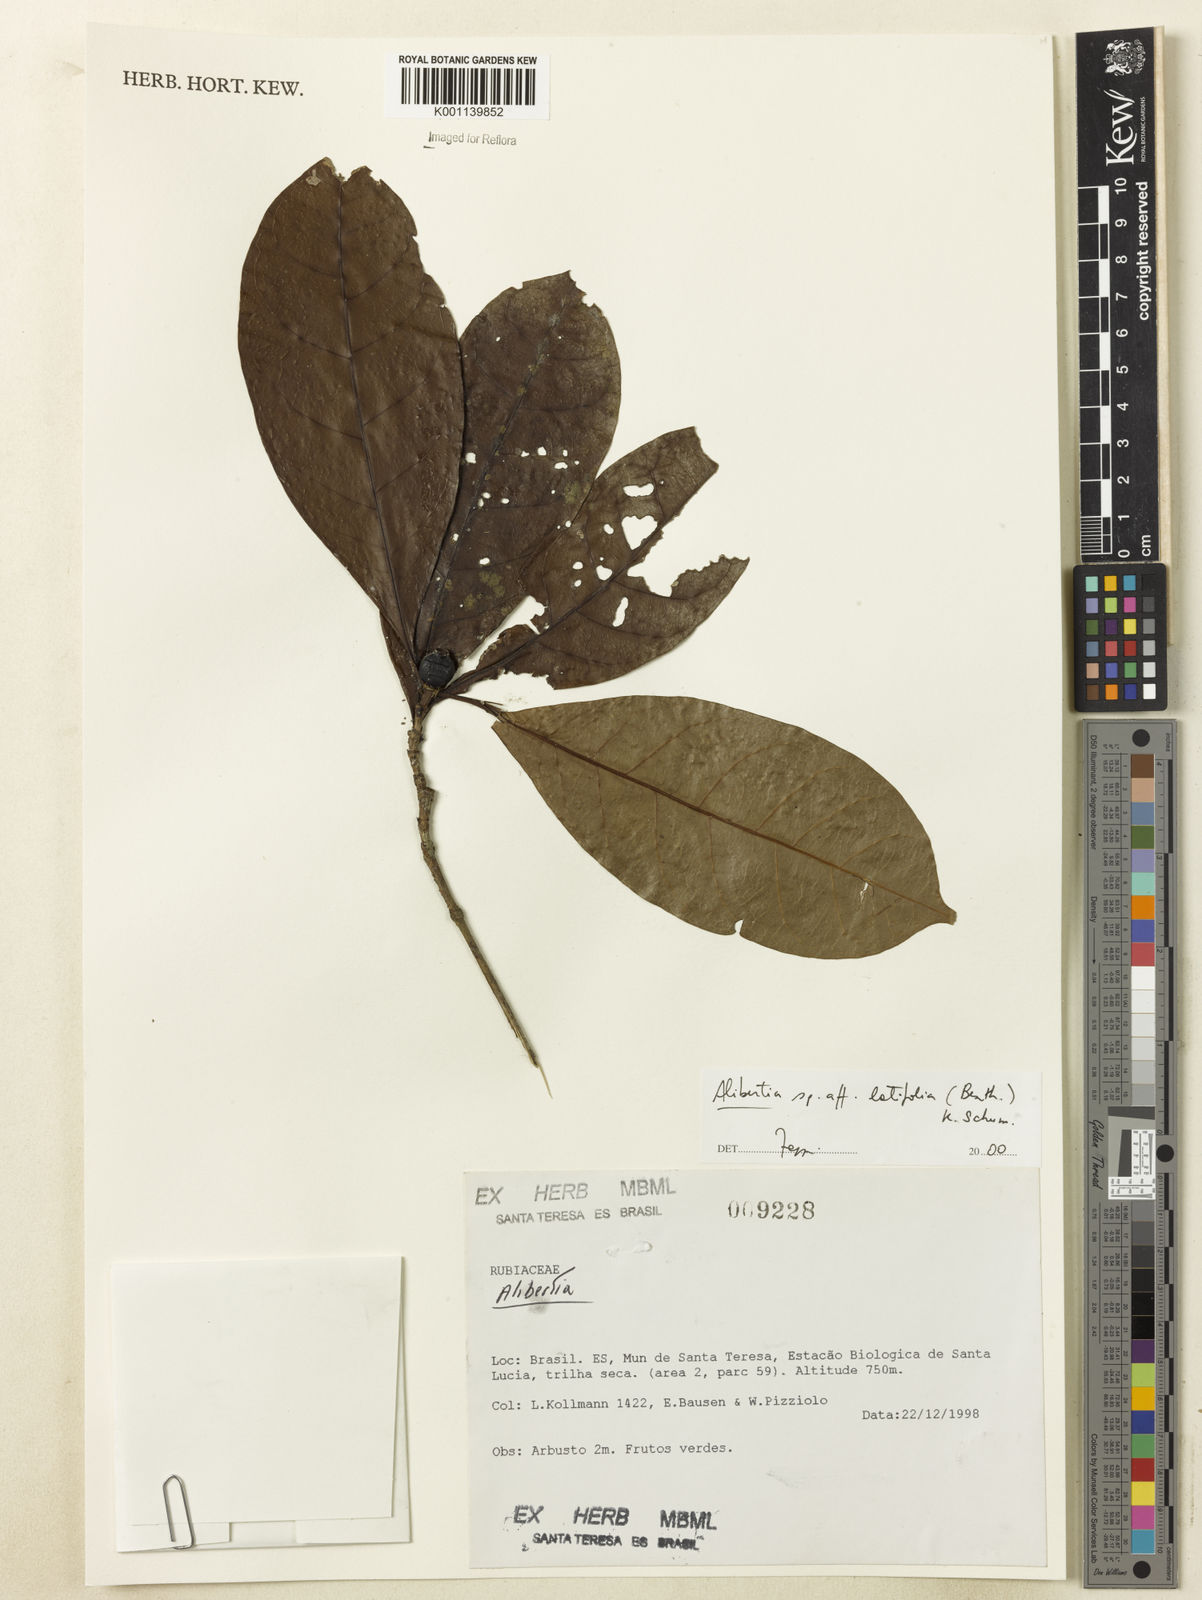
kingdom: Plantae
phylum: Tracheophyta
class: Magnoliopsida
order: Gentianales
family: Rubiaceae
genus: Alibertia
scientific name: Alibertia latifolia
